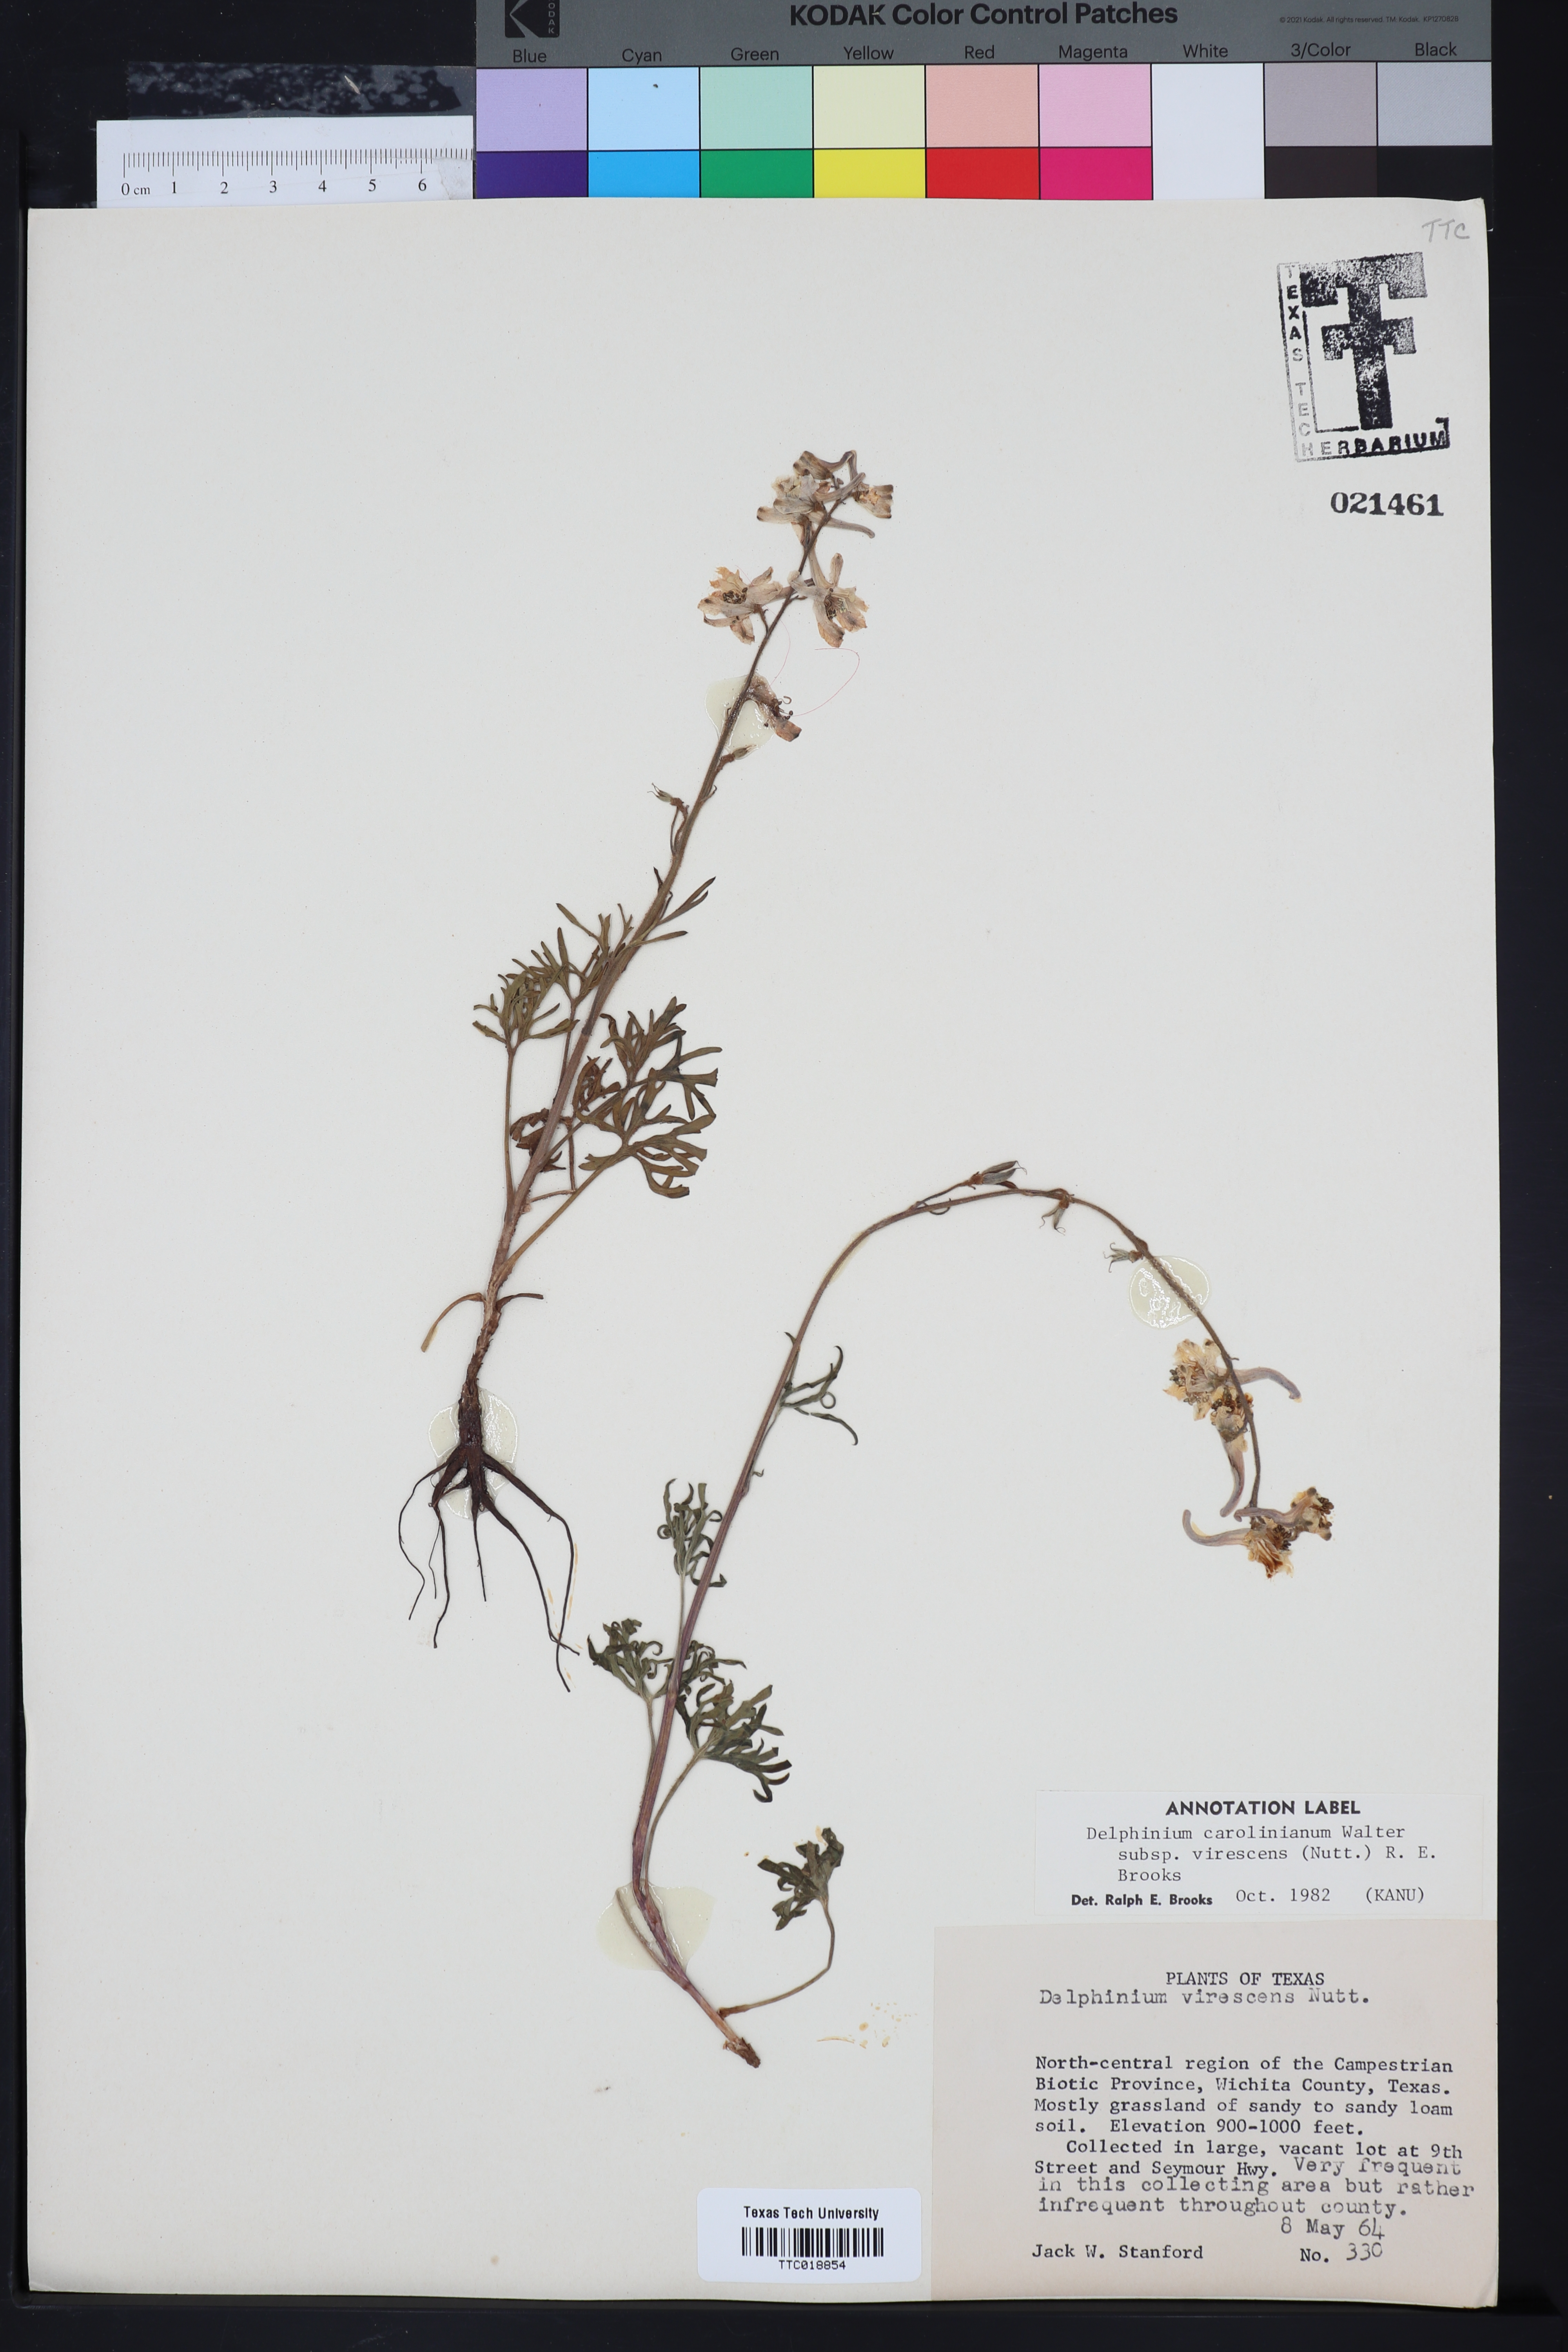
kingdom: Plantae
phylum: Tracheophyta
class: Magnoliopsida
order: Ranunculales
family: Ranunculaceae
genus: Delphinium
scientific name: Delphinium carolinianum
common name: Carolina larkspur
